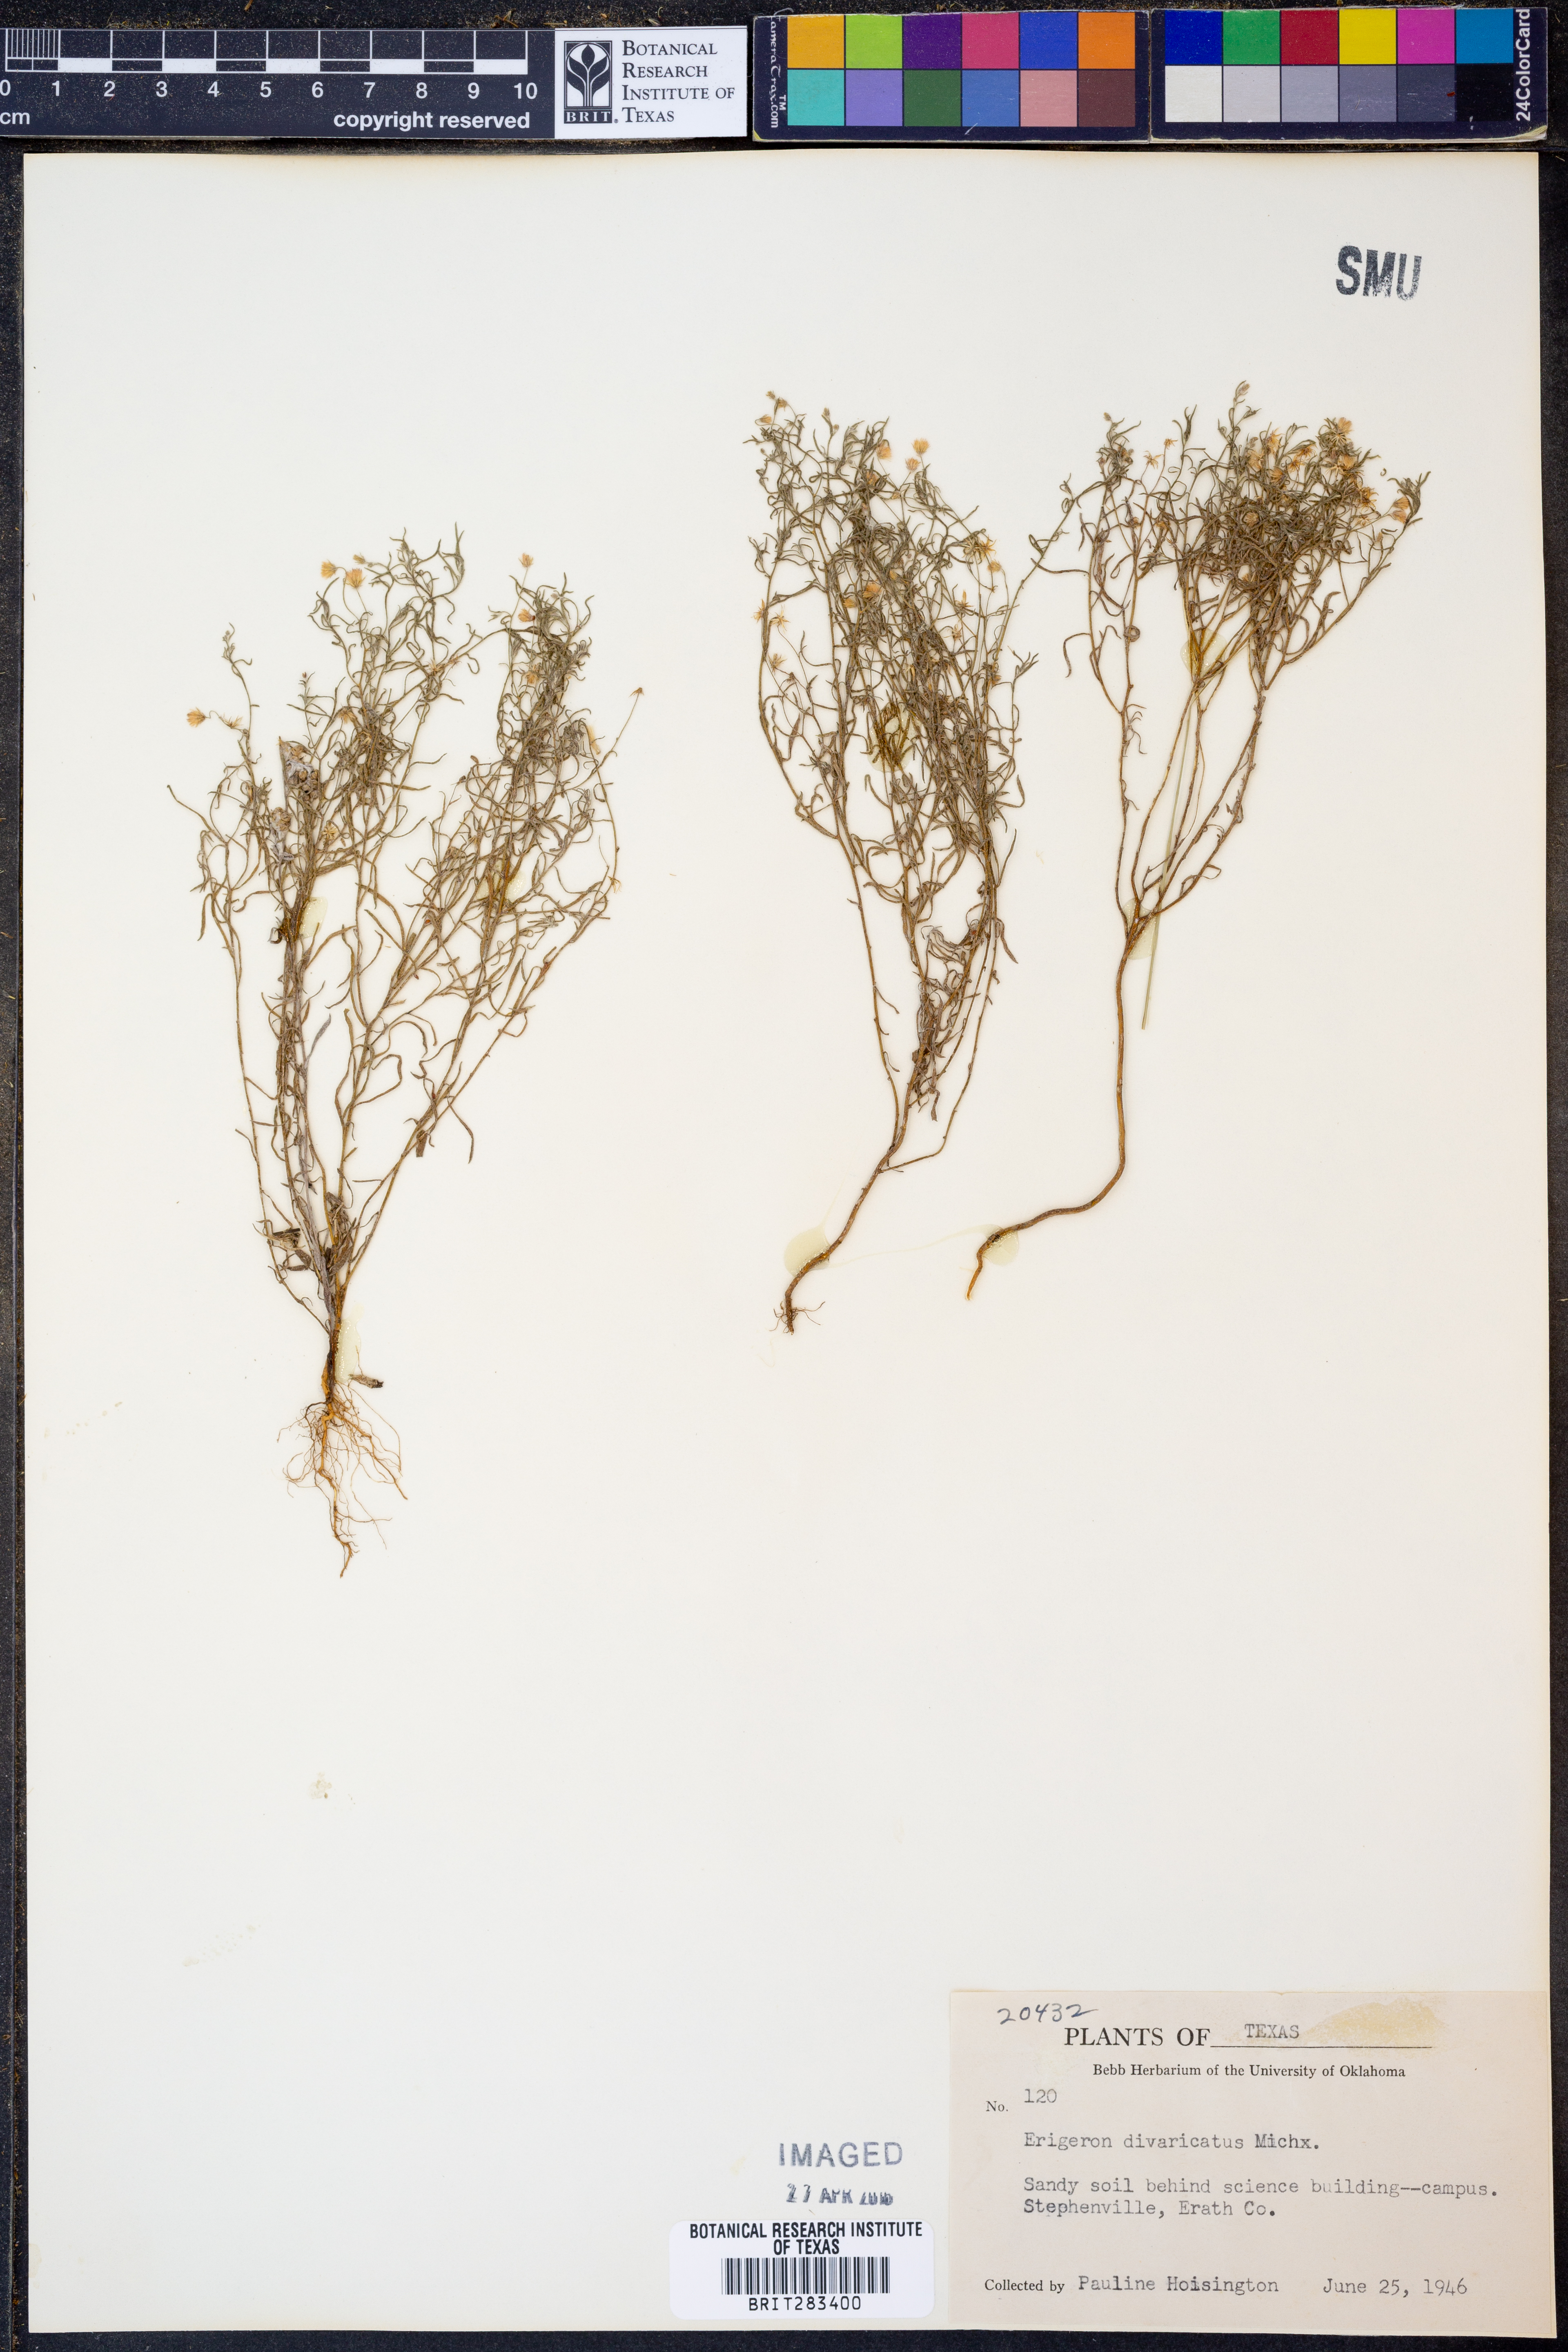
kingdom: Plantae
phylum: Tracheophyta
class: Magnoliopsida
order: Asterales
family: Asteraceae
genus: Erigeron
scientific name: Erigeron divaricatus
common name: Dwarf conyza
